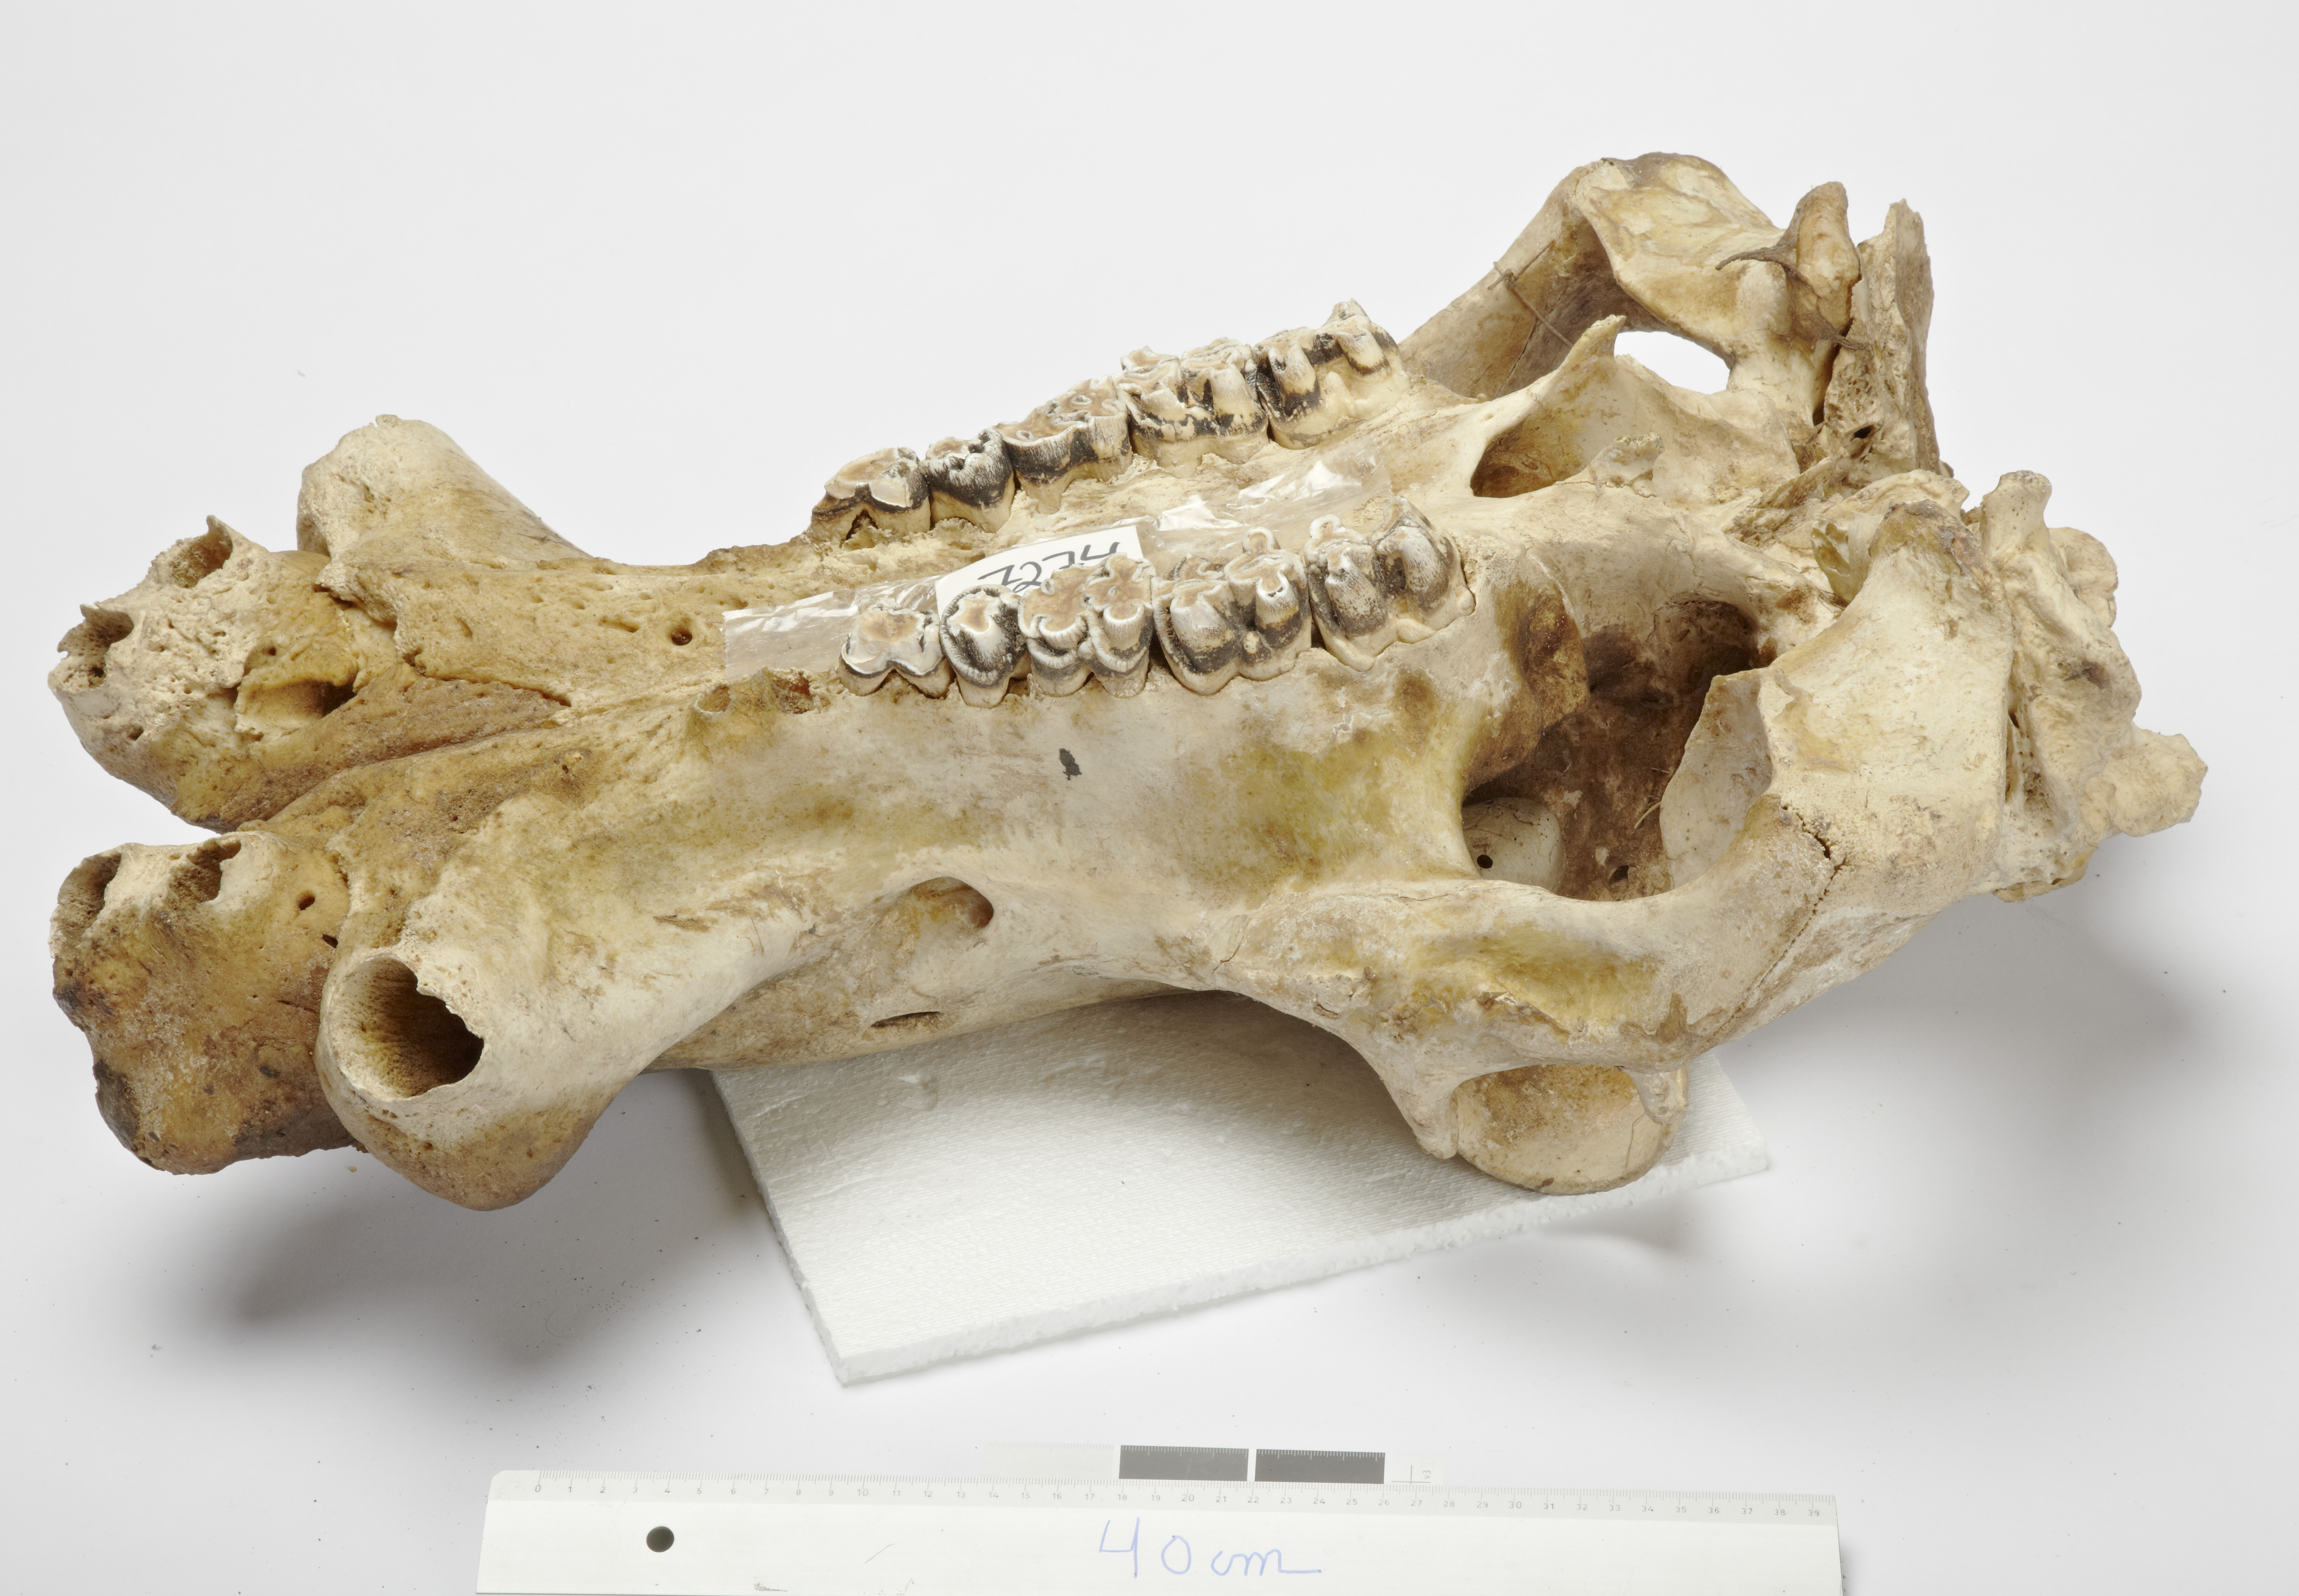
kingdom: Animalia
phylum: Chordata
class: Mammalia
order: Artiodactyla
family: Hippopotamidae
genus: Hippopotamus
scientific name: Hippopotamus
